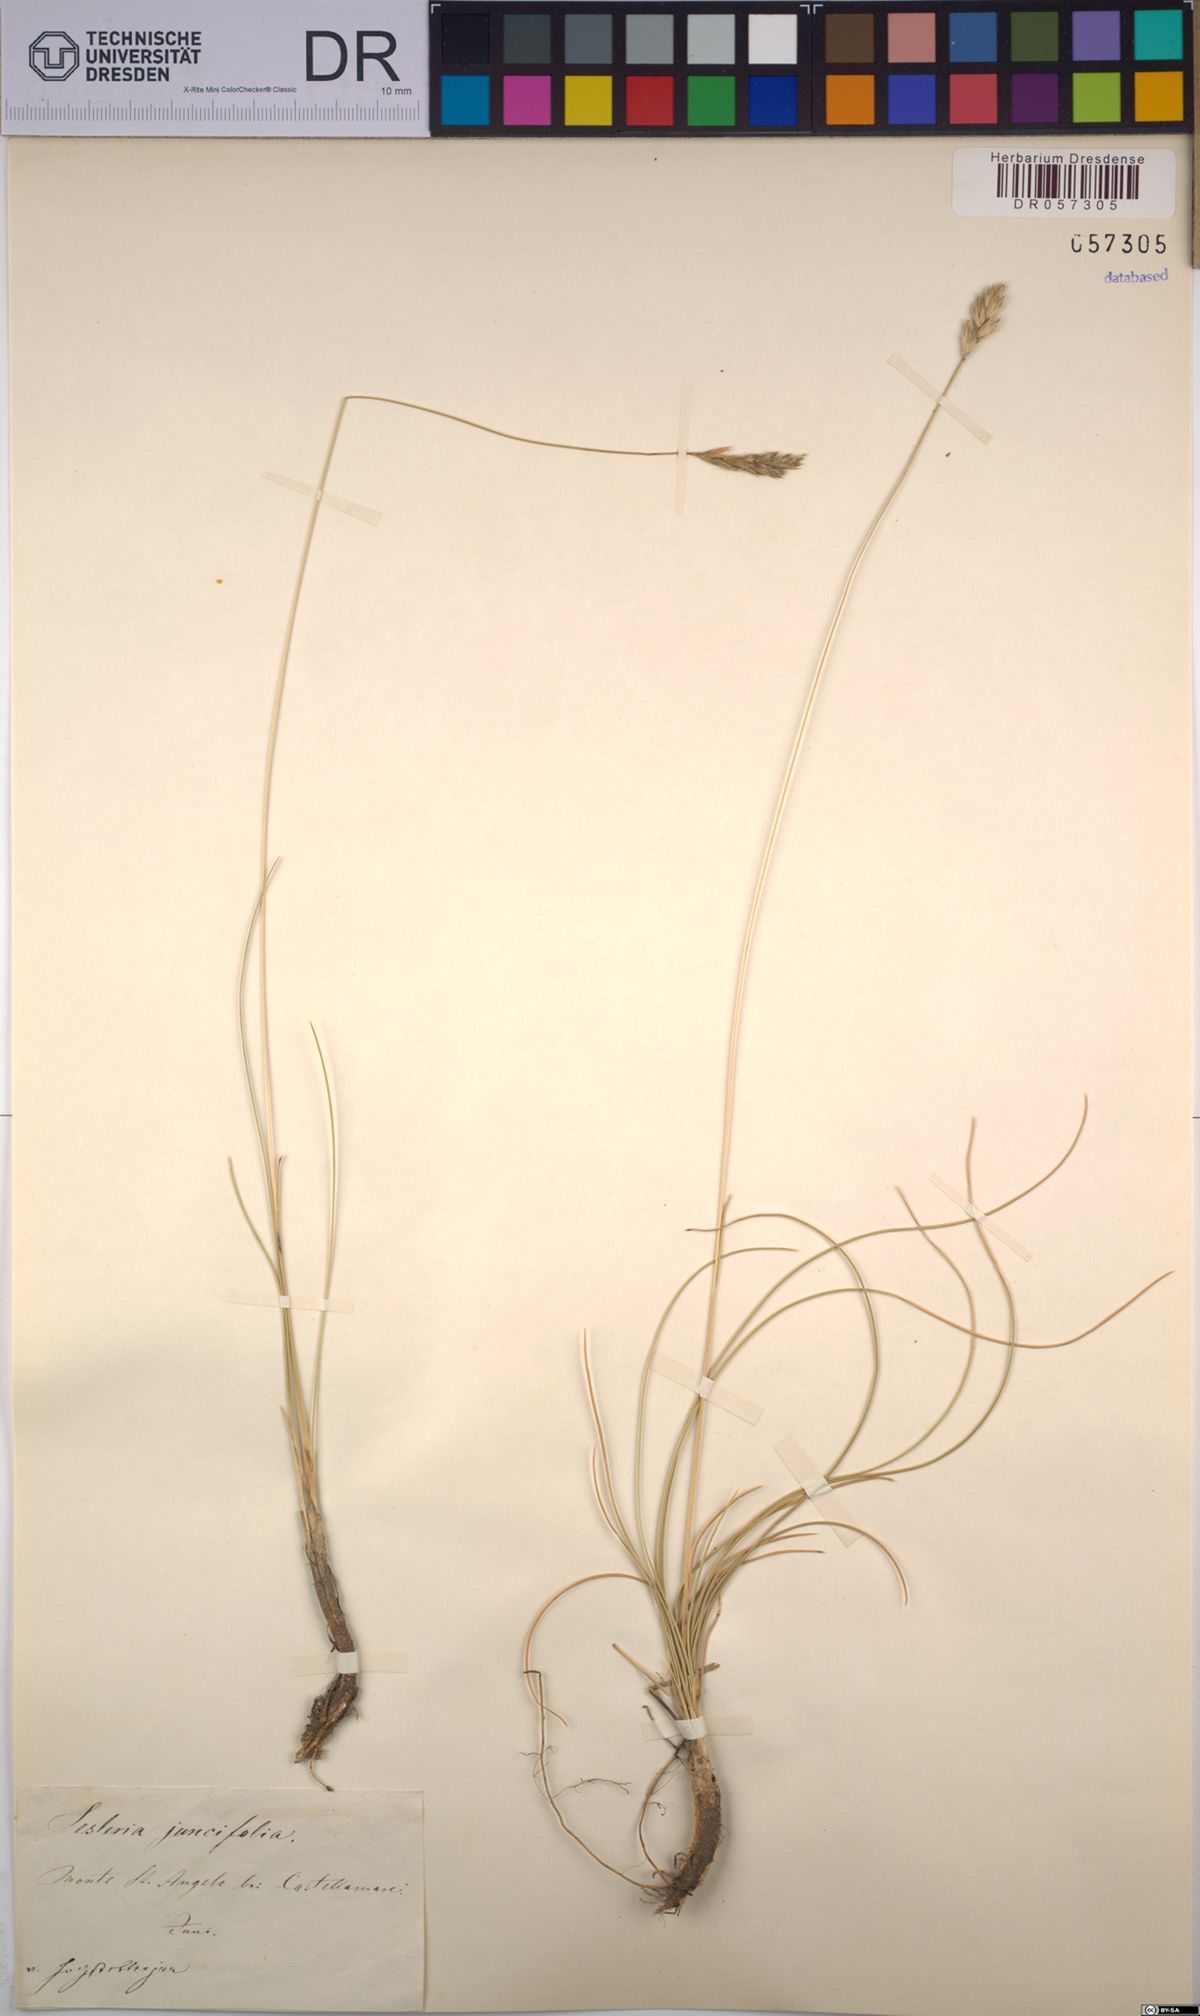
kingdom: Plantae
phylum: Tracheophyta
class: Liliopsida
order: Poales
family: Poaceae
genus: Sesleria
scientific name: Sesleria juncifolia
